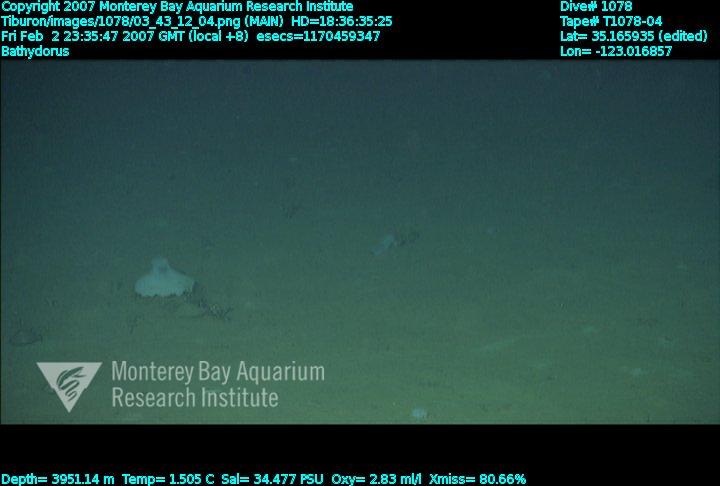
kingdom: Animalia
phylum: Porifera
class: Hexactinellida
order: Lyssacinosida
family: Rossellidae
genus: Bathydorus
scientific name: Bathydorus
